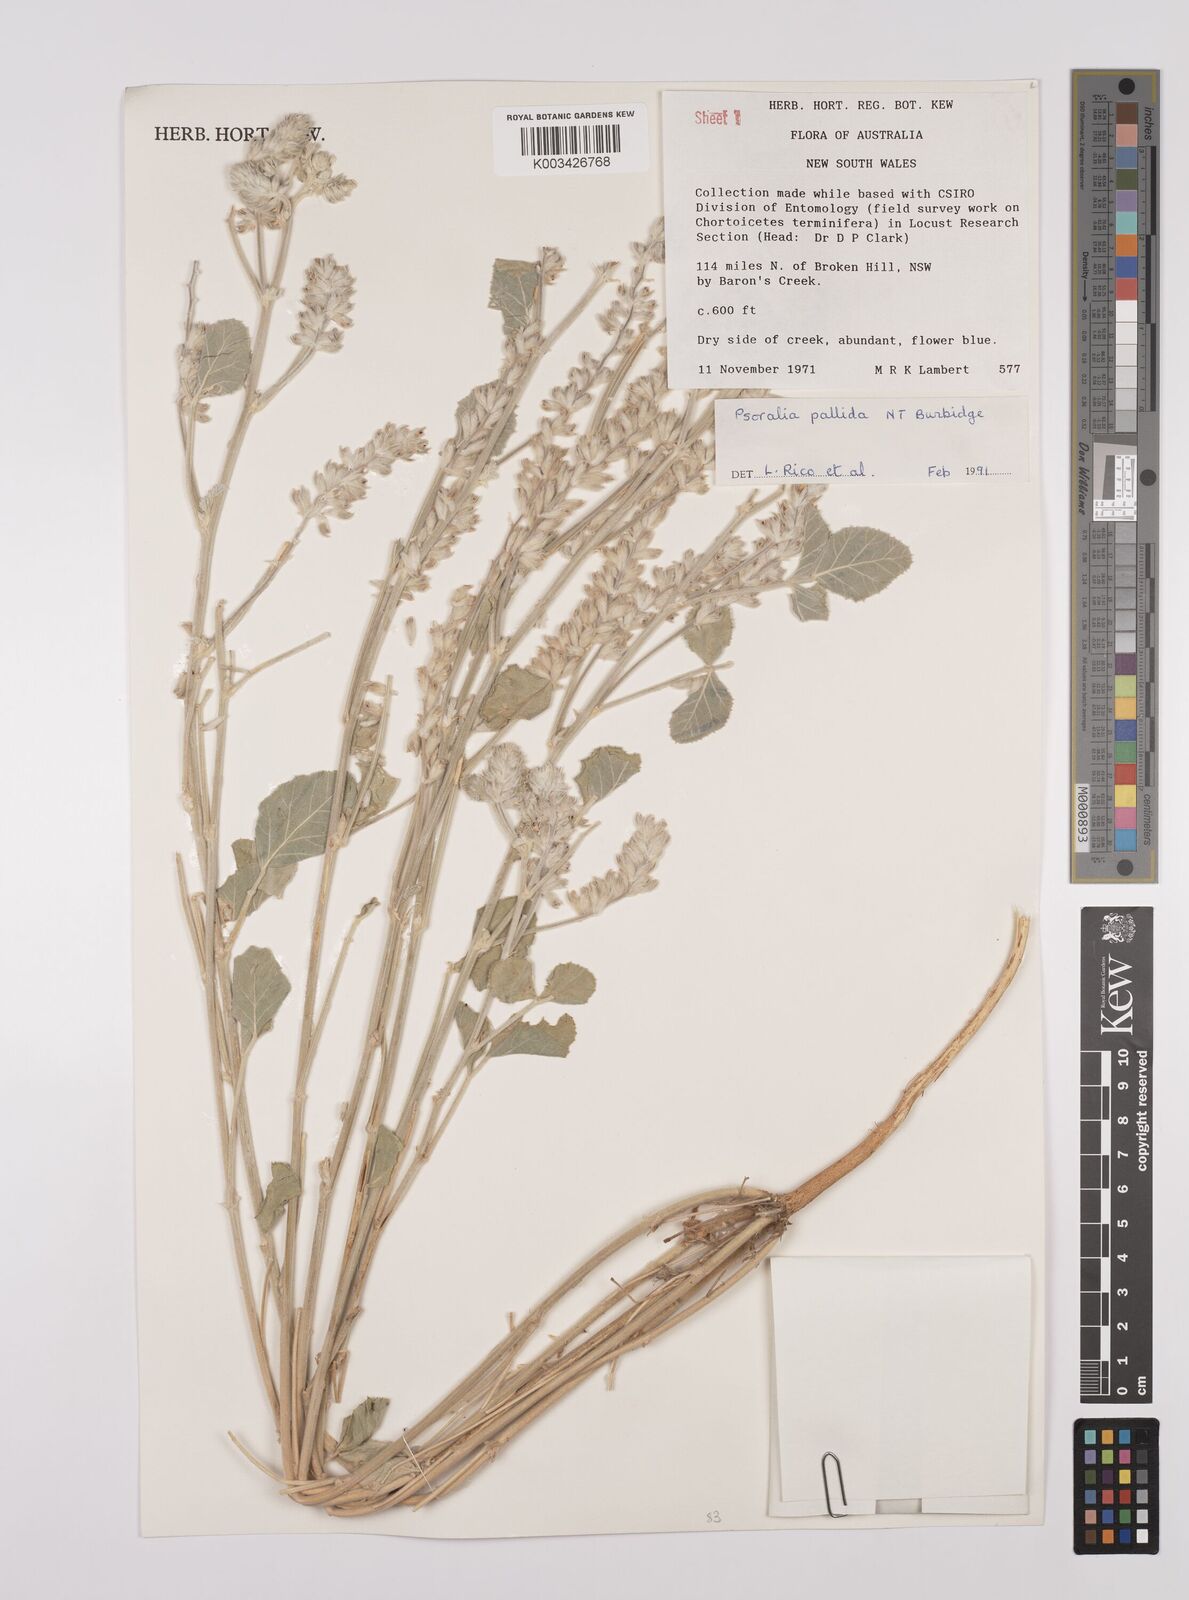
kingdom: Plantae
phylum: Tracheophyta
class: Magnoliopsida
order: Fabales
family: Fabaceae
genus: Cullen
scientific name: Cullen pallidum
